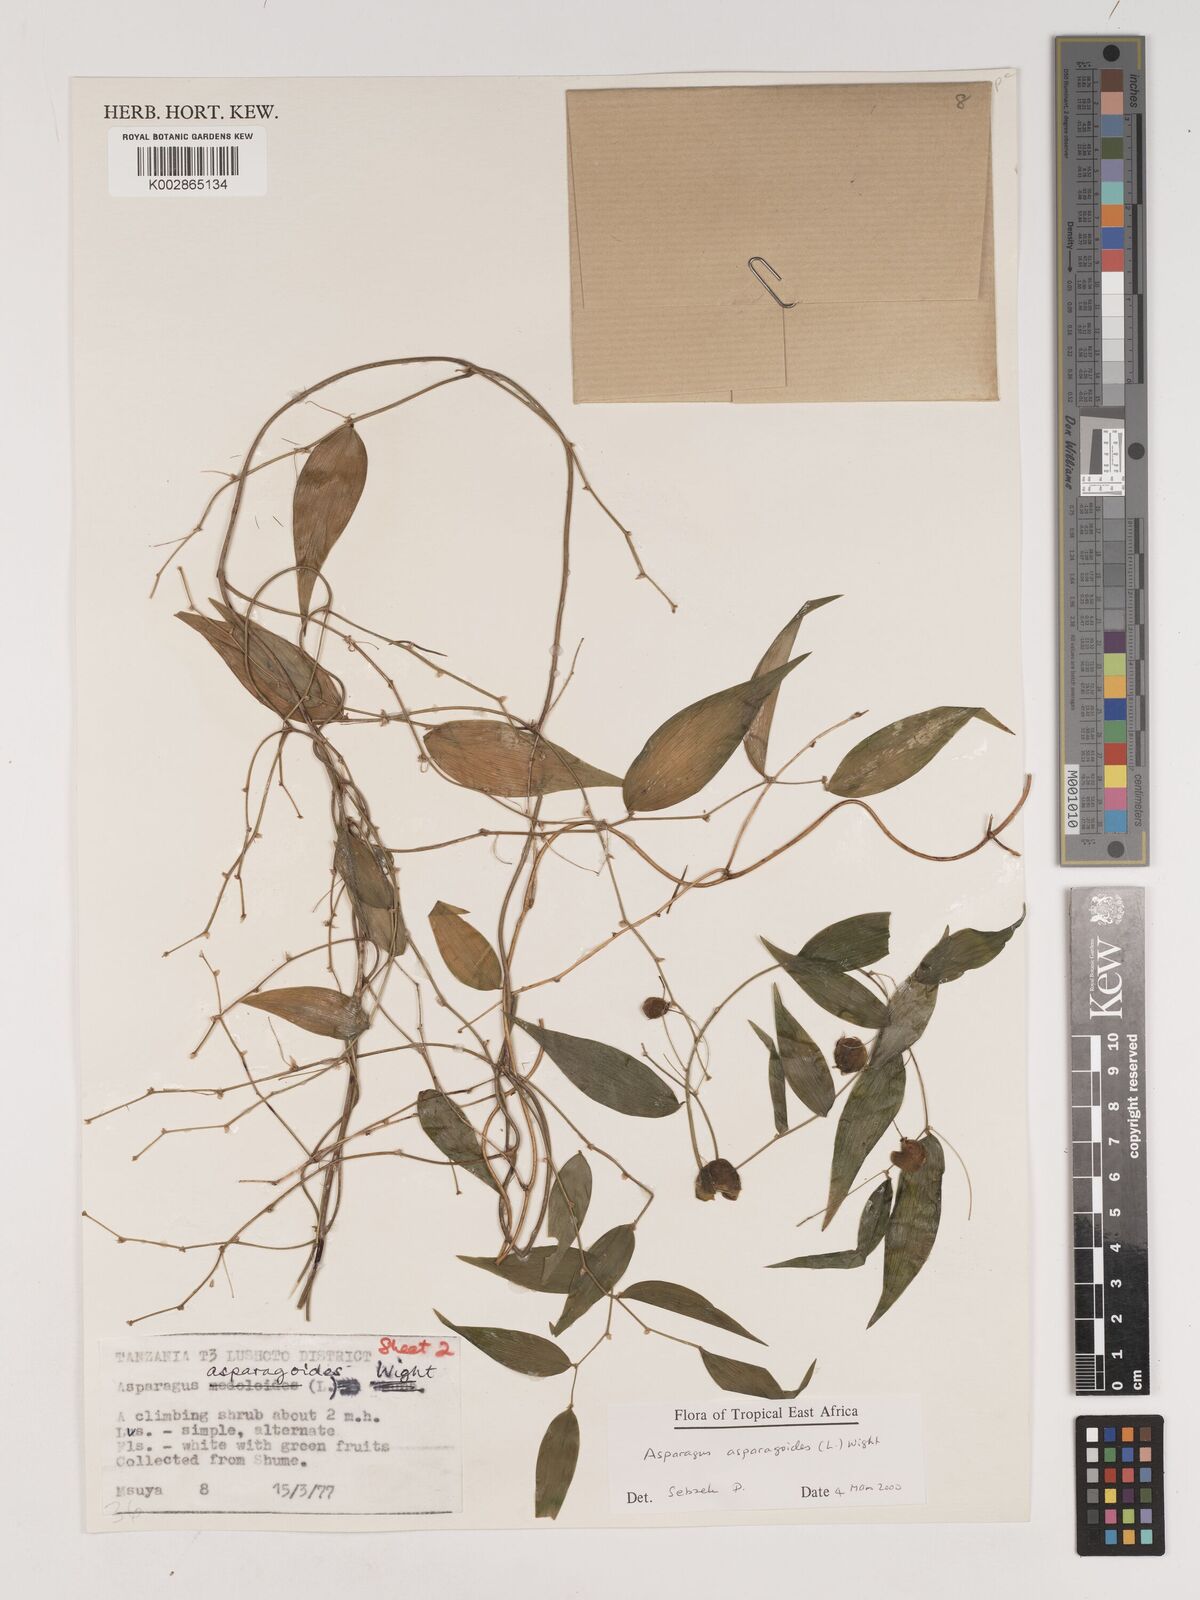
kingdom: Plantae
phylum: Tracheophyta
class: Liliopsida
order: Asparagales
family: Asparagaceae
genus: Asparagus
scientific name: Asparagus asparagoides
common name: African asparagus fern
